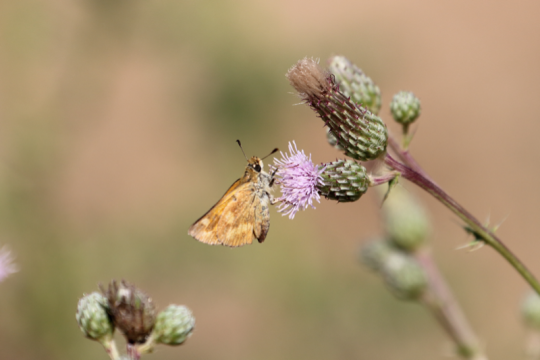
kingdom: Animalia
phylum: Arthropoda
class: Insecta
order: Lepidoptera
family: Hesperiidae
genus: Ochlodes
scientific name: Ochlodes sylvanoides
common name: Woodland Skipper
